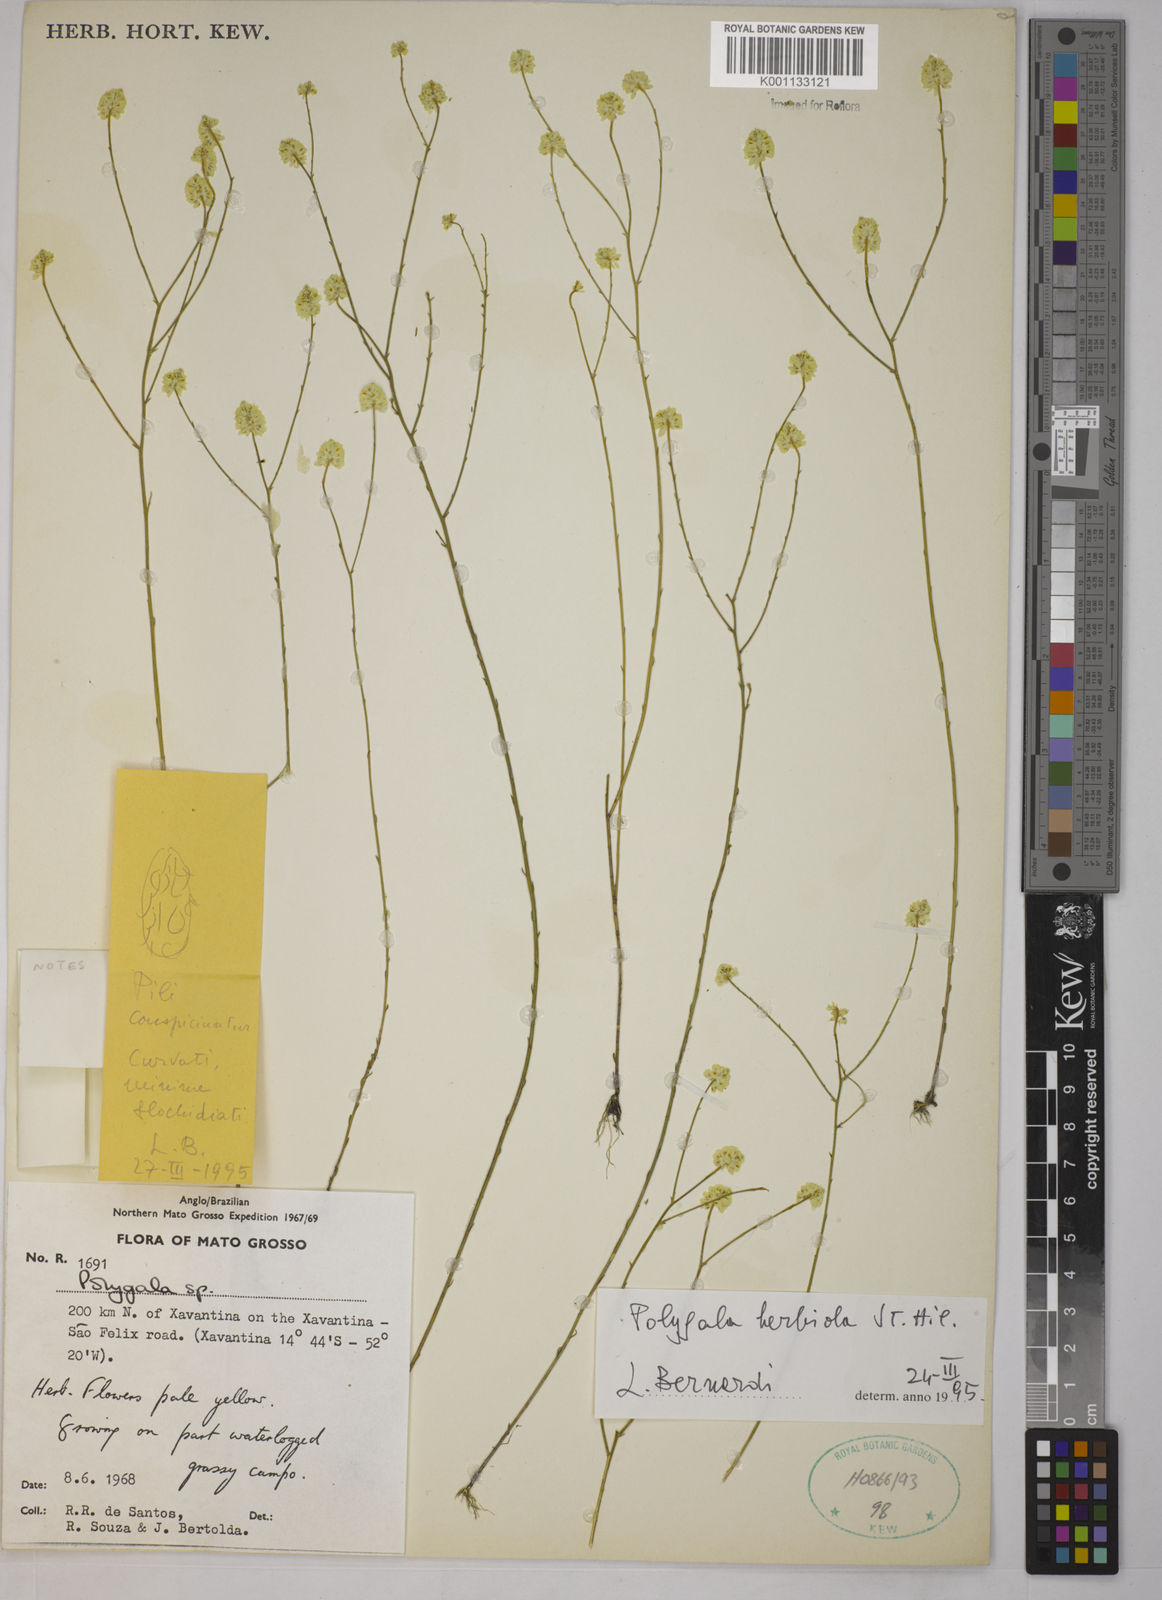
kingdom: Plantae
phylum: Tracheophyta
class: Magnoliopsida
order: Fabales
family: Polygalaceae
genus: Polygala
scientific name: Polygala herbiola
